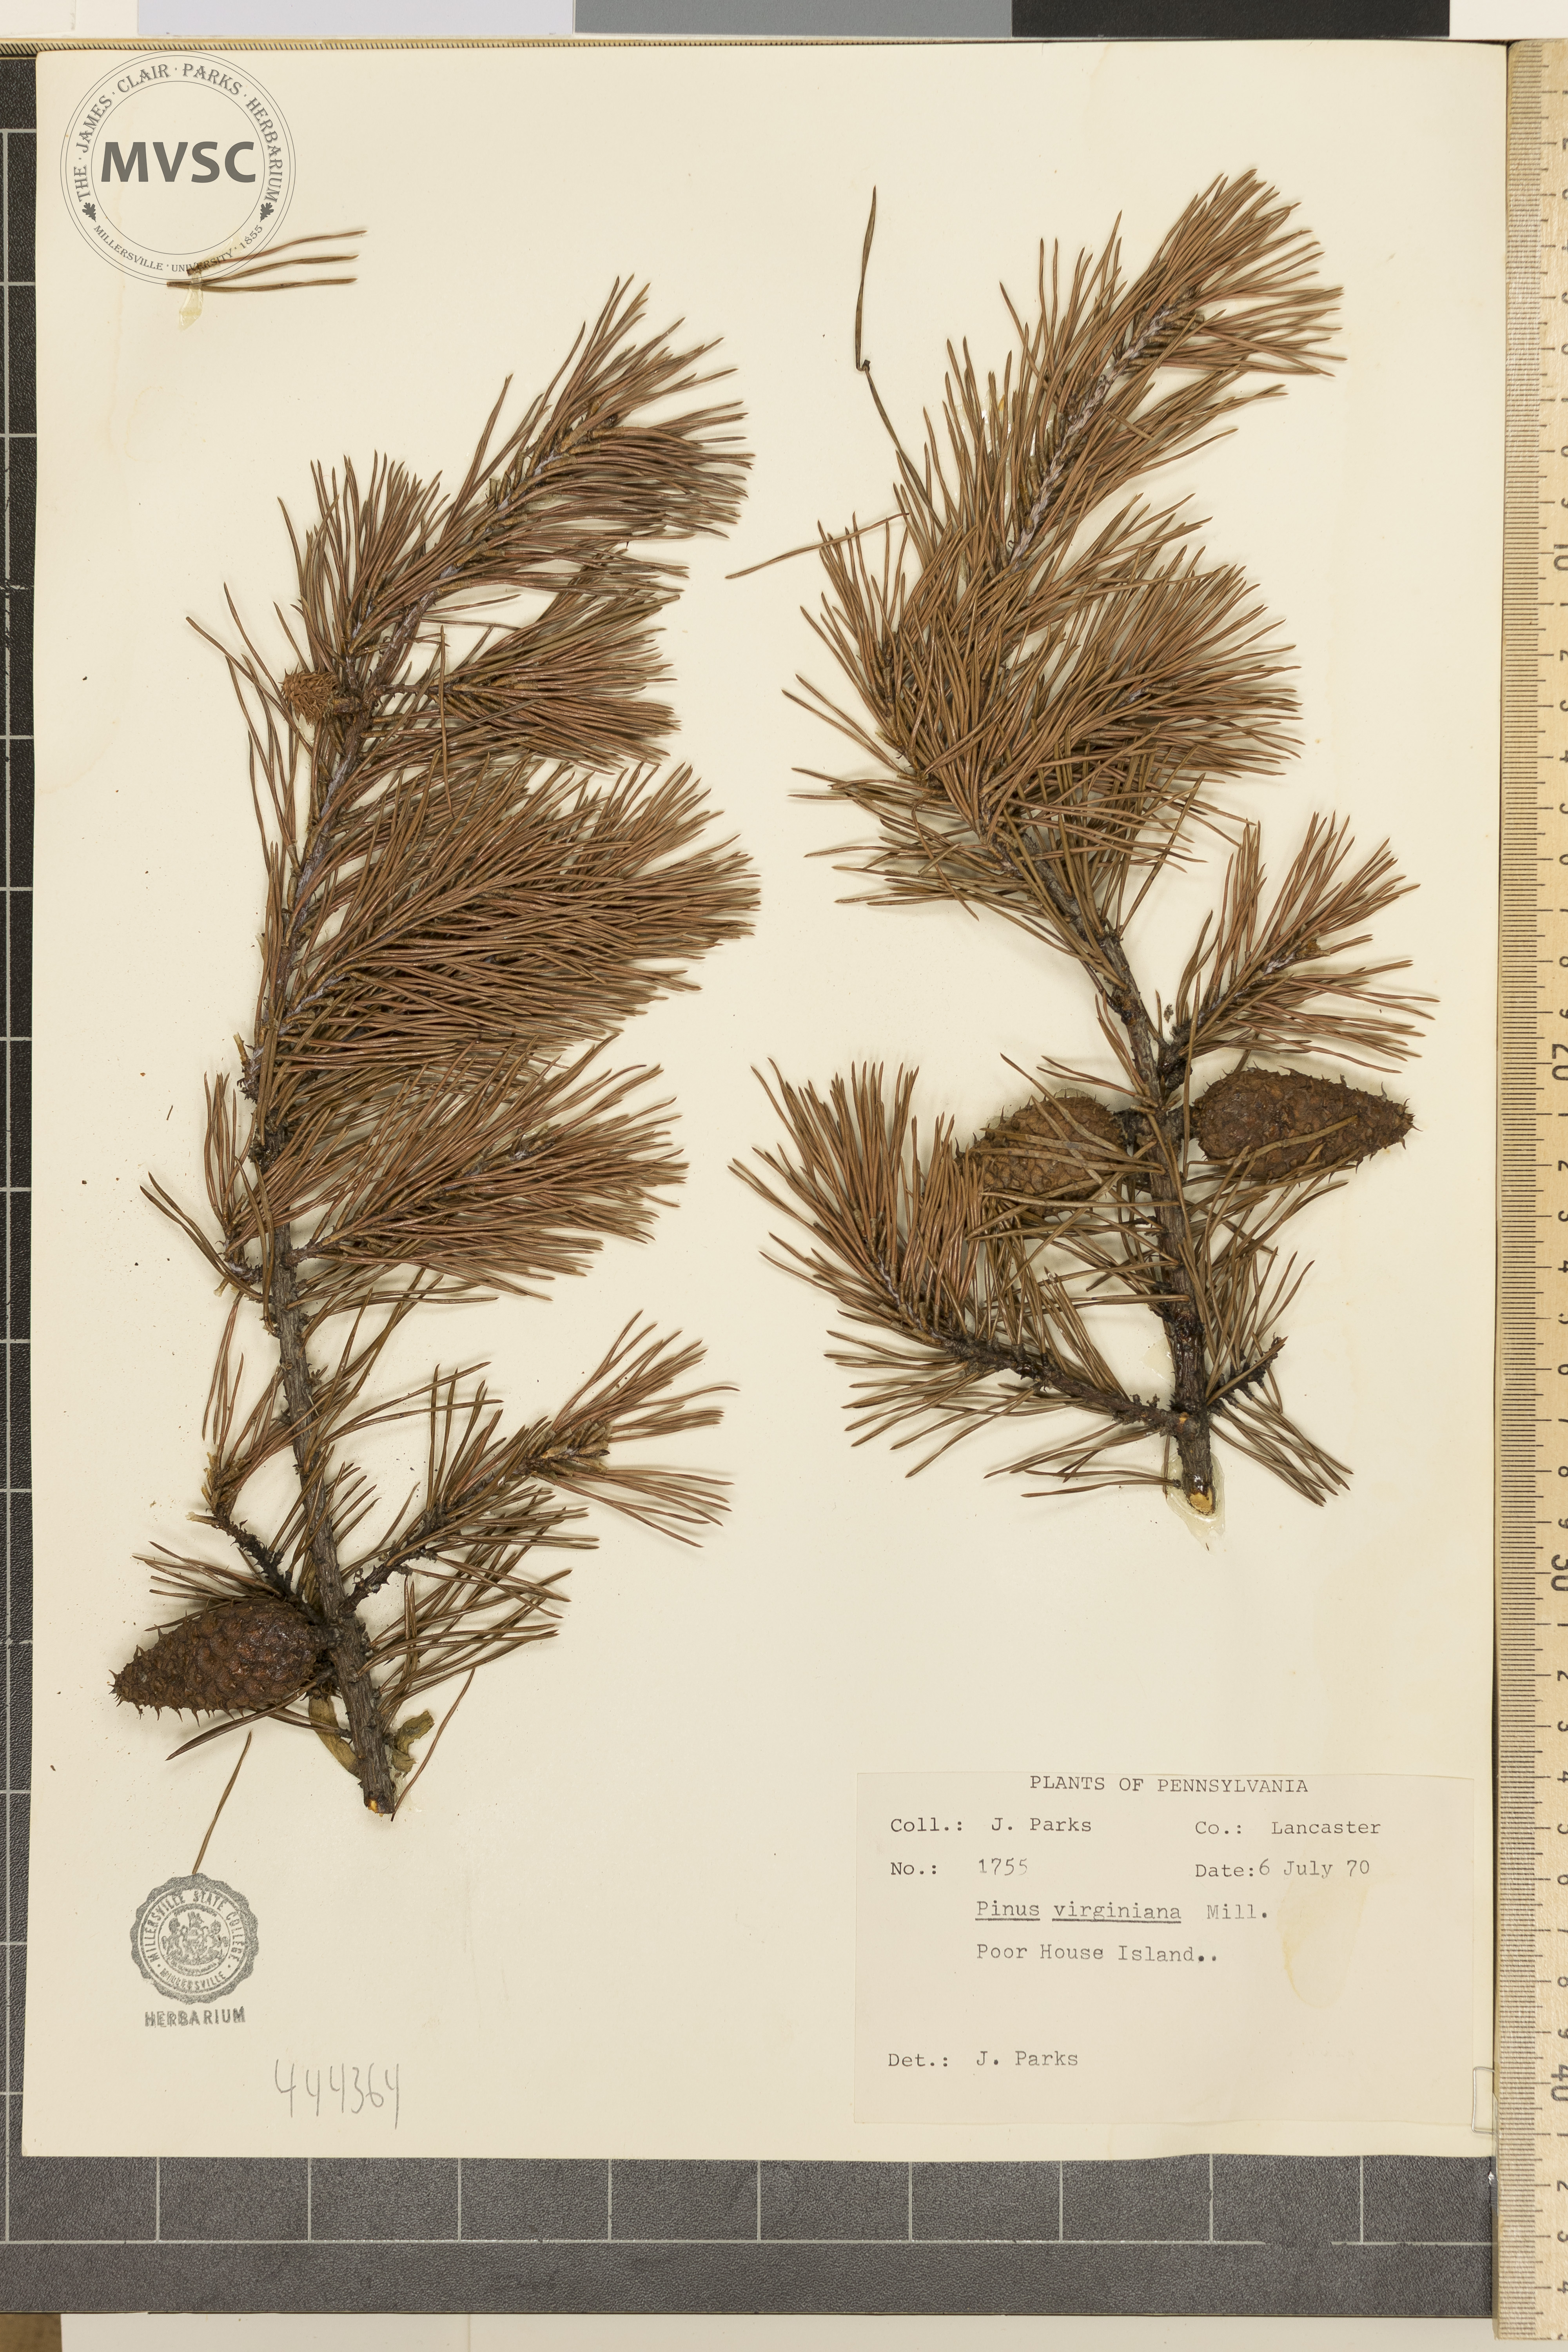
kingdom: Plantae
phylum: Tracheophyta
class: Pinopsida
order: Pinales
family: Pinaceae
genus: Pinus
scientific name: Pinus virginiana
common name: Scrub pine
